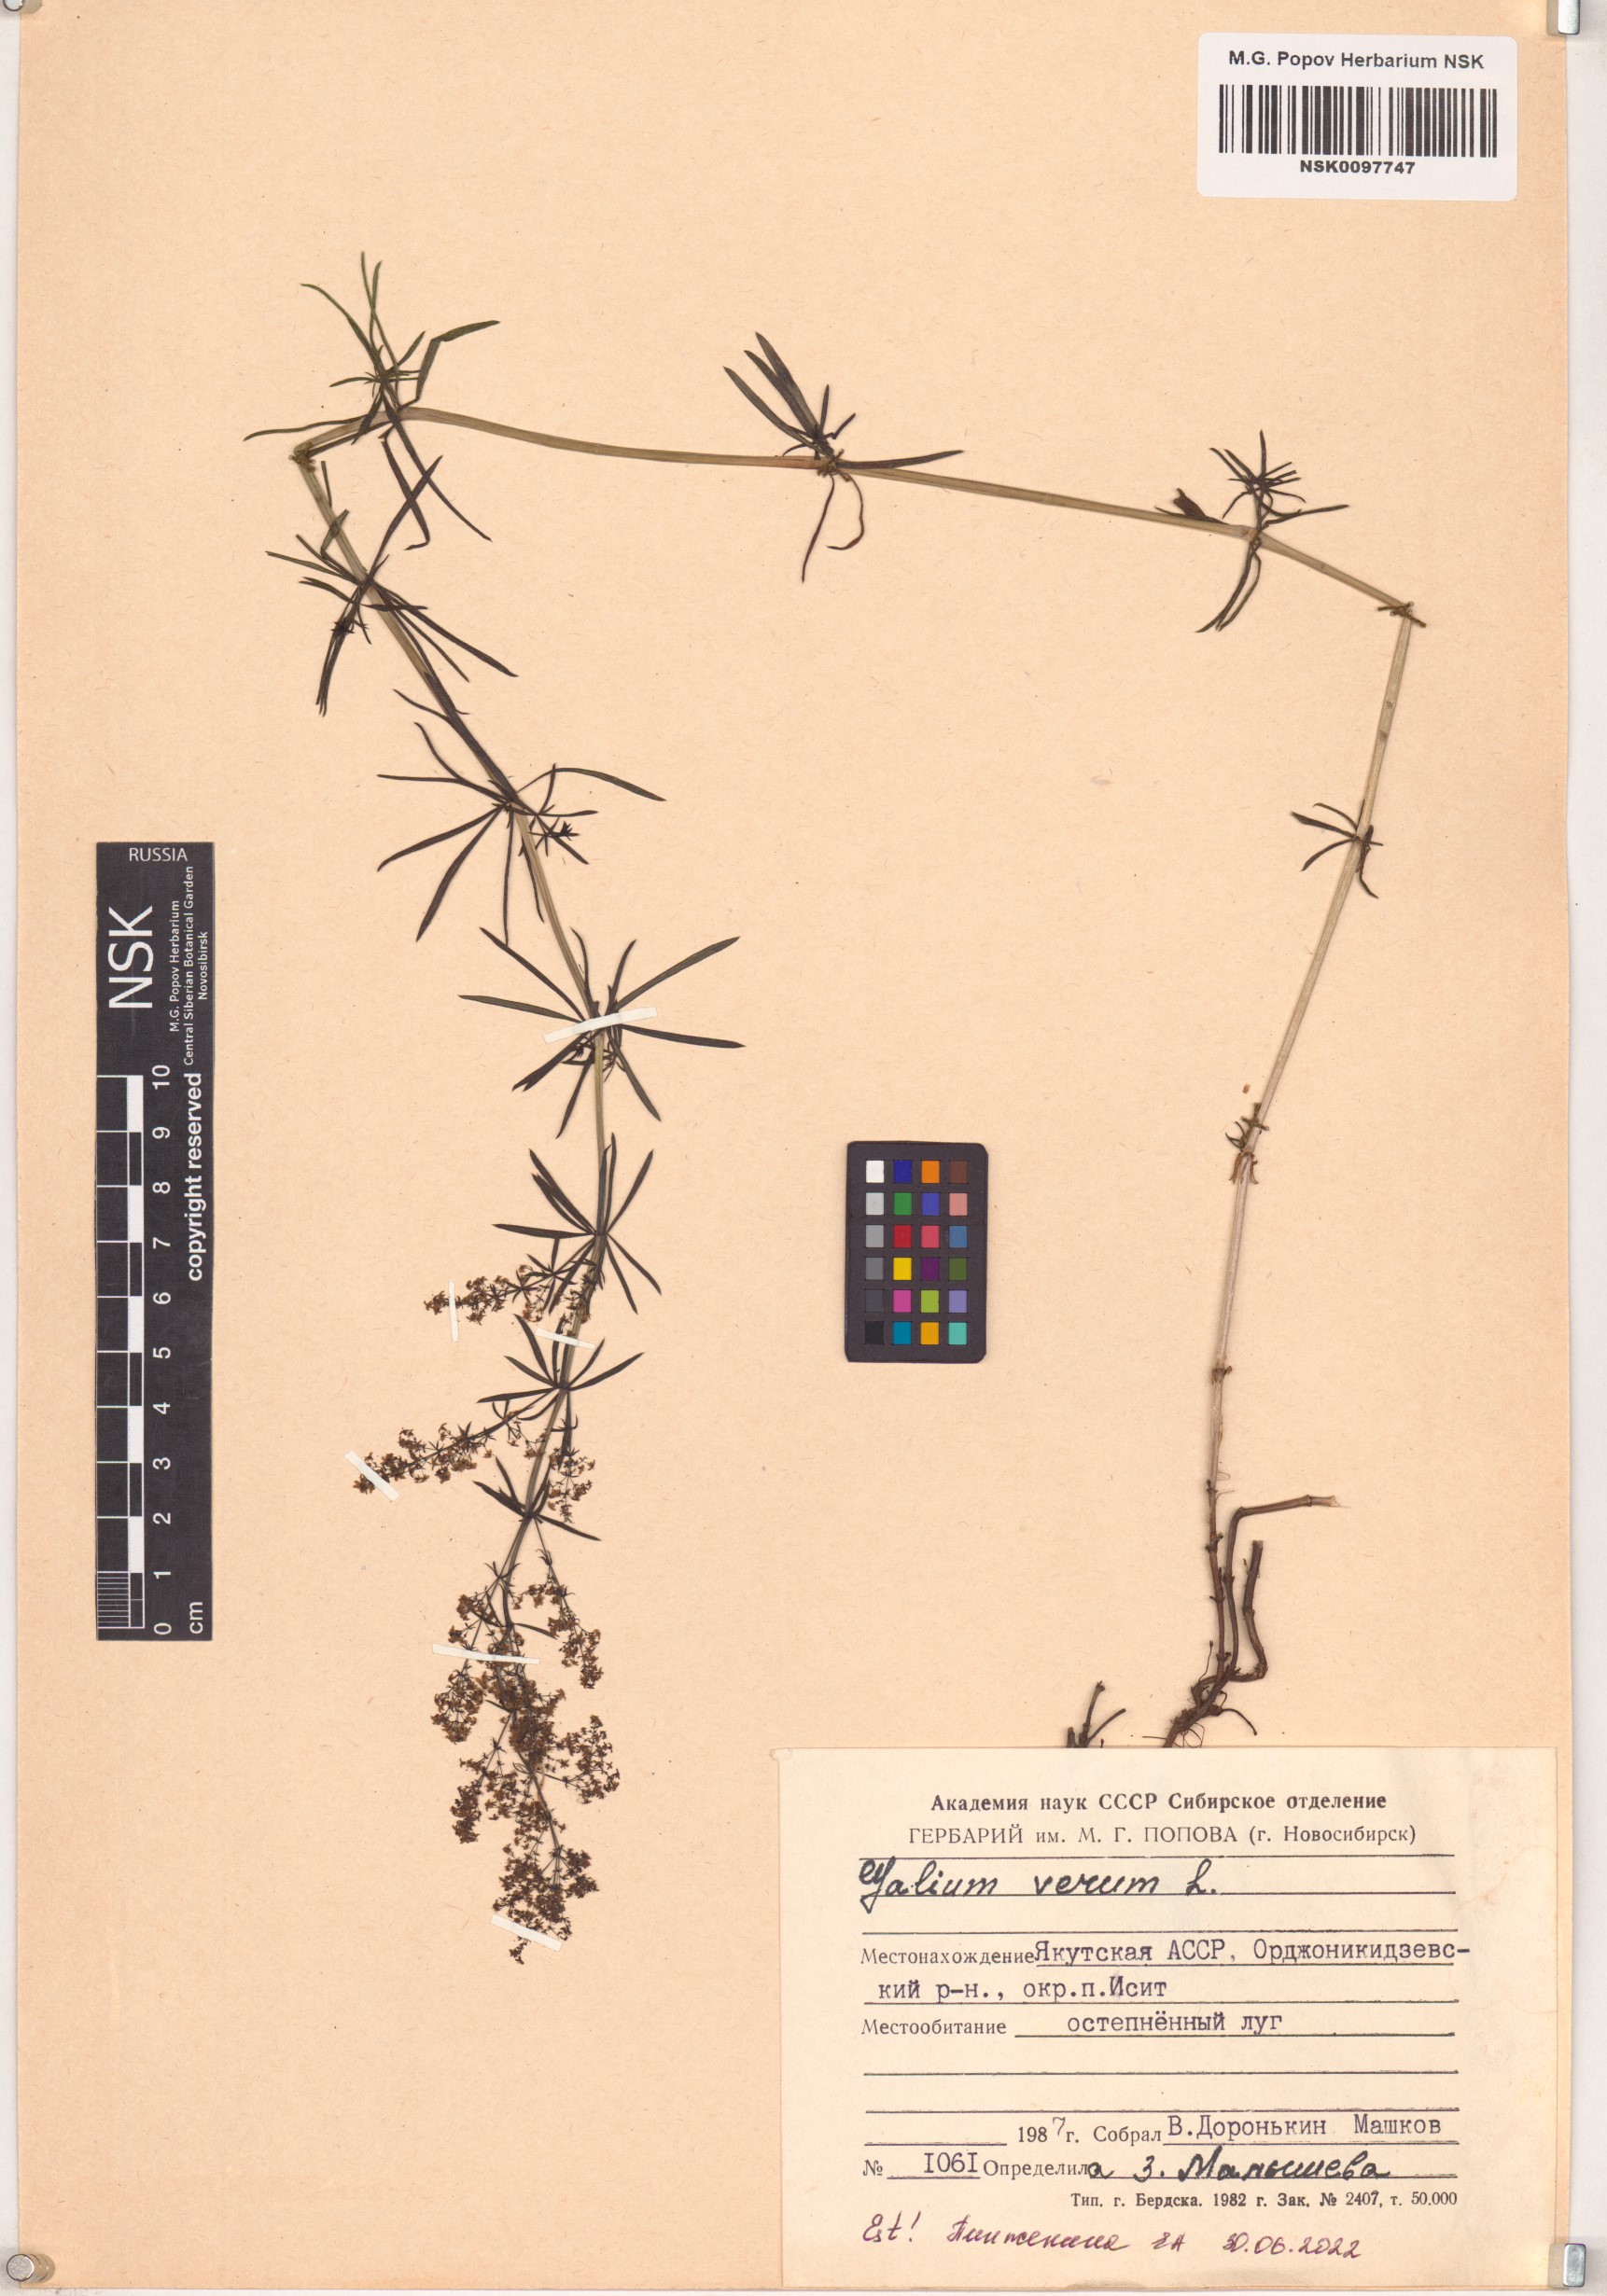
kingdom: Plantae
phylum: Tracheophyta
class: Magnoliopsida
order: Gentianales
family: Rubiaceae
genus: Galium
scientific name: Galium verum
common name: Lady's bedstraw
